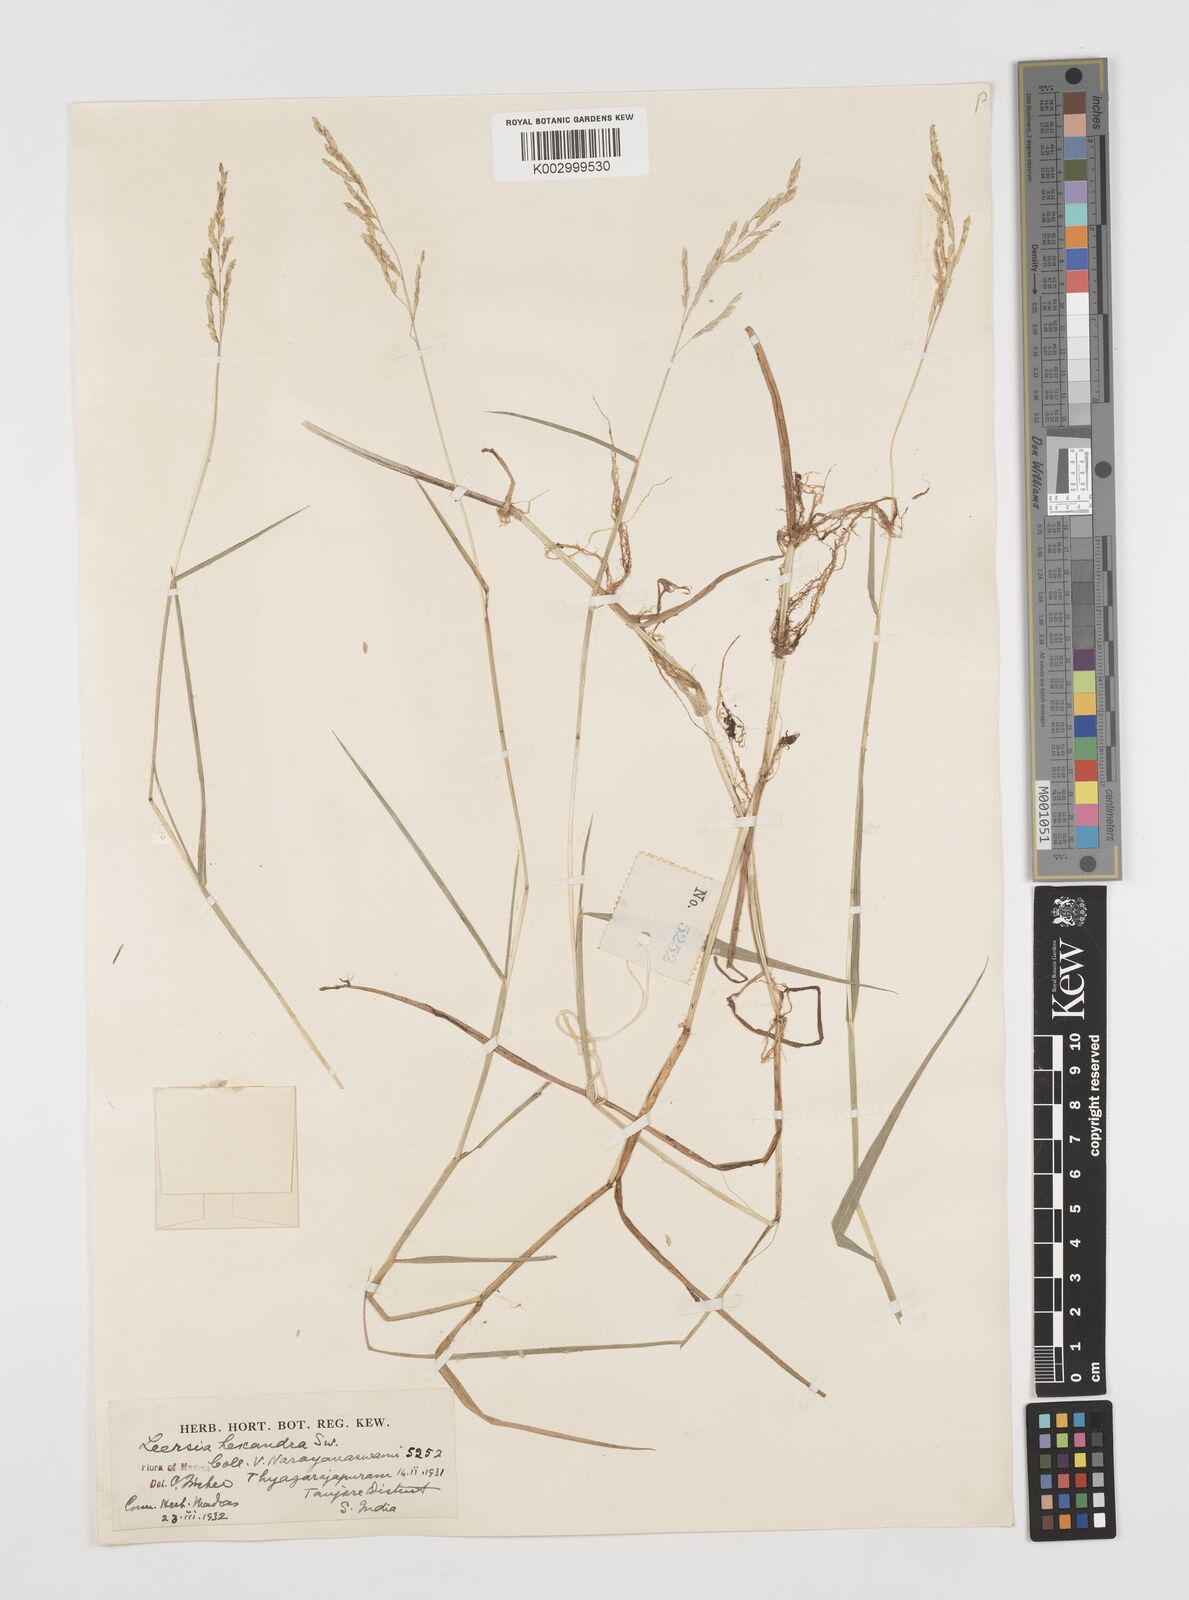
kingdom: Plantae
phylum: Tracheophyta
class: Liliopsida
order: Poales
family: Poaceae
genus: Leersia
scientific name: Leersia hexandra
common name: Southern cut grass
